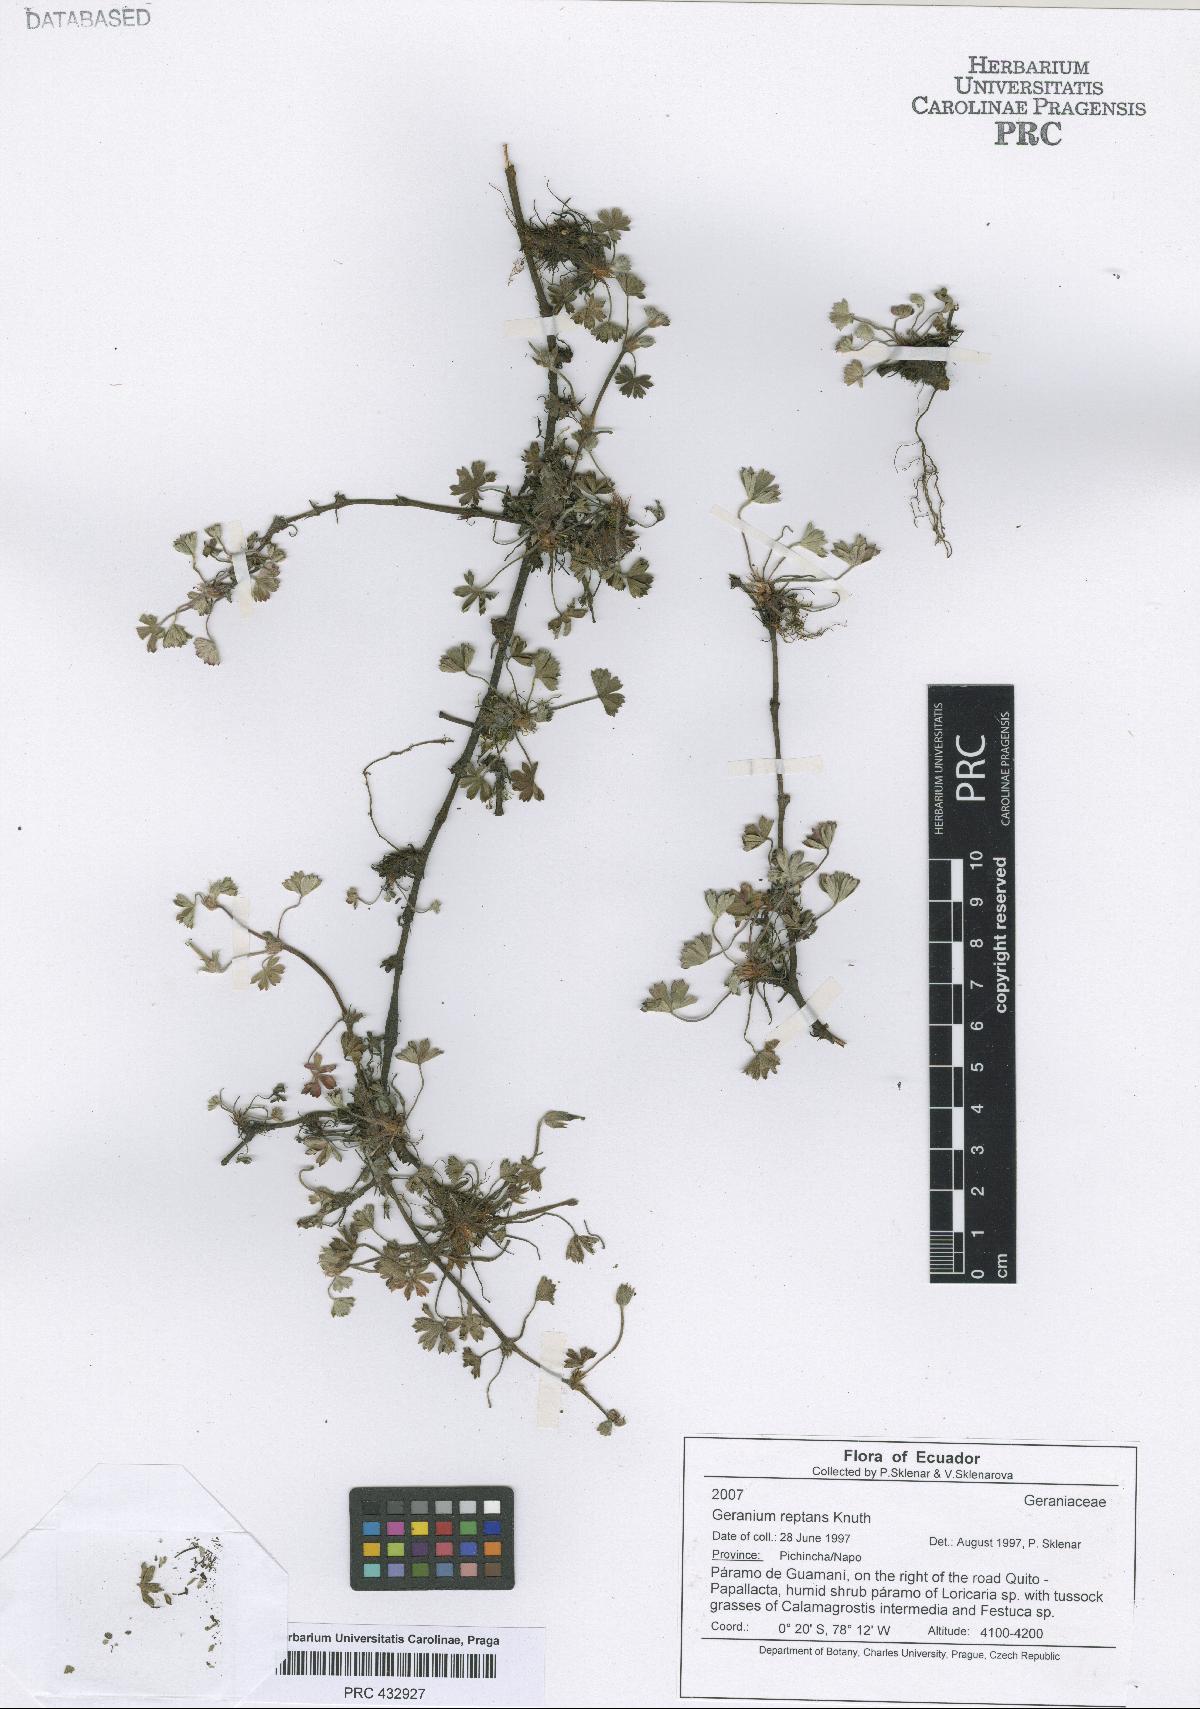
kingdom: Plantae
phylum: Tracheophyta
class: Magnoliopsida
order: Geraniales
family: Geraniaceae
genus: Geranium
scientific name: Geranium diffusum
